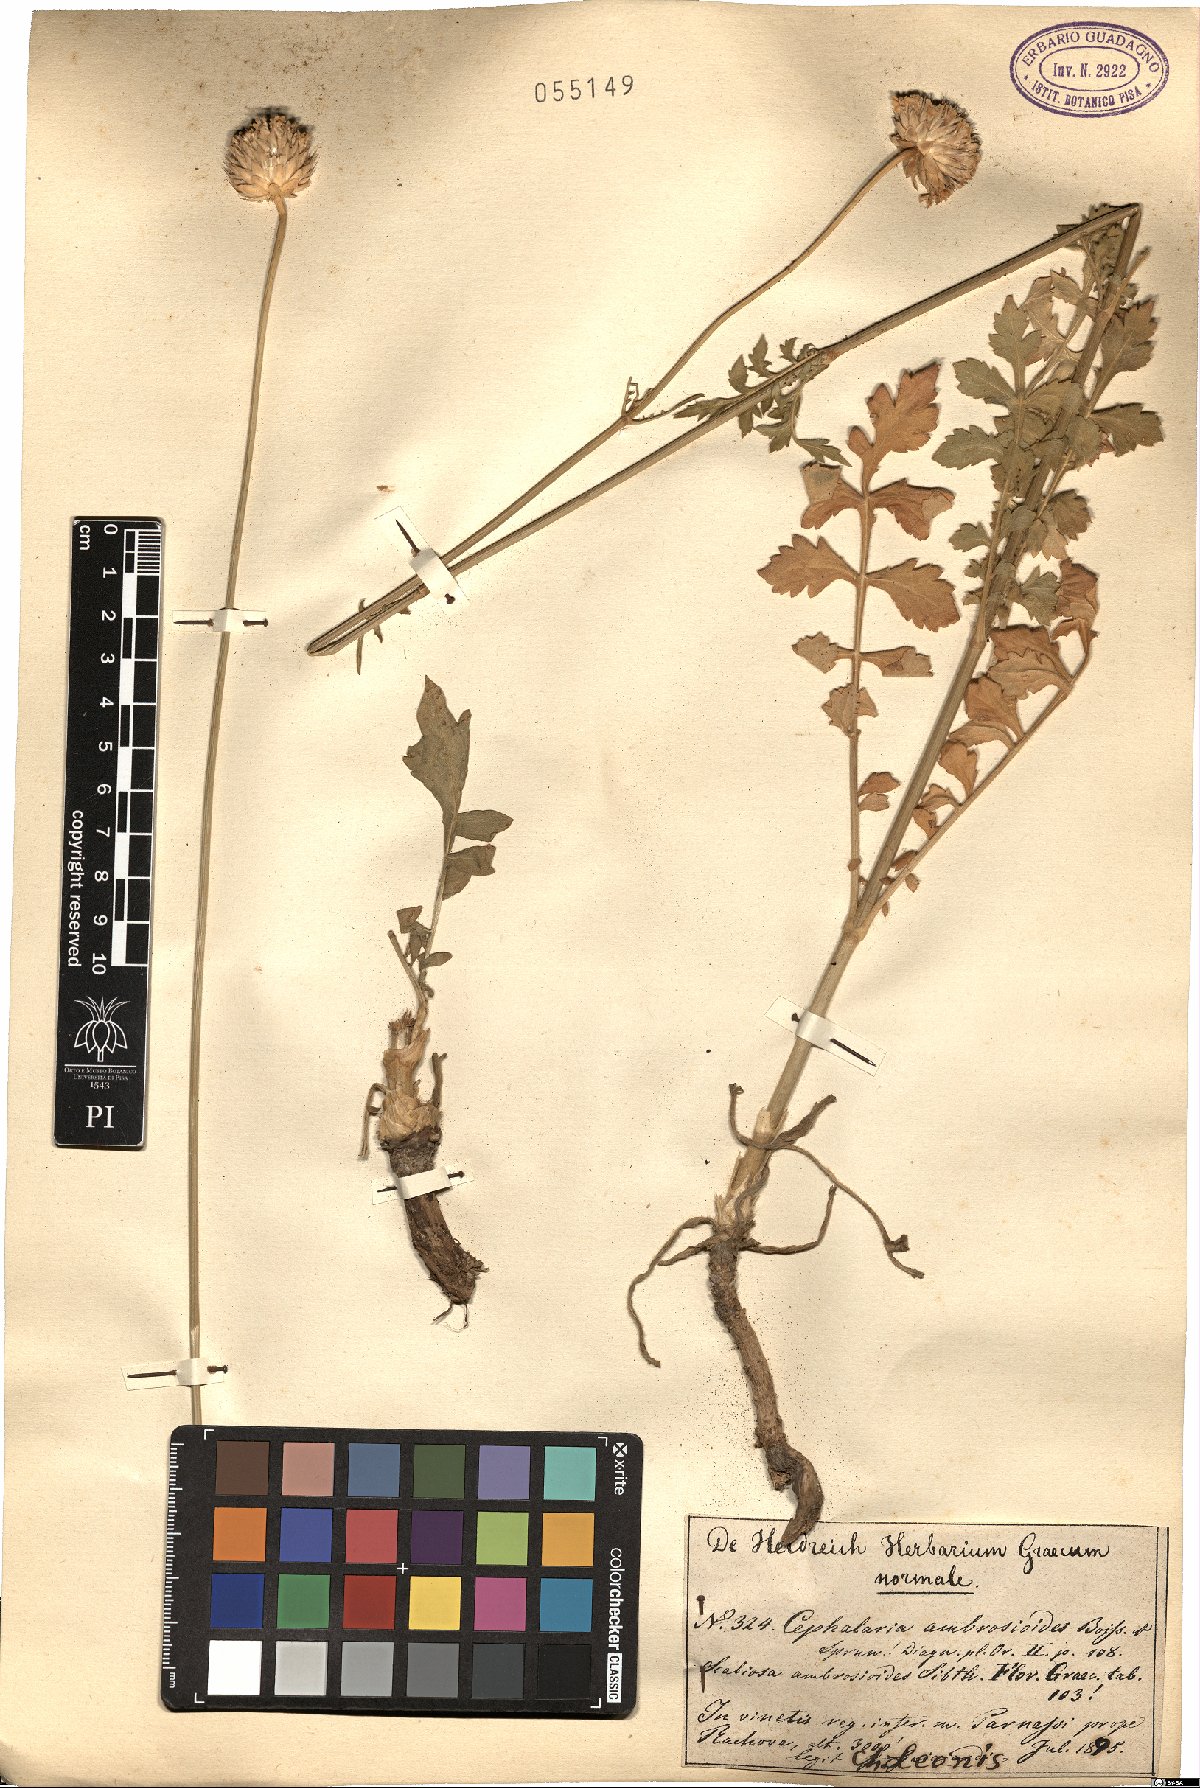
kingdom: Plantae
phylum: Tracheophyta
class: Magnoliopsida
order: Dipsacales
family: Caprifoliaceae
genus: Cephalaria
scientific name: Cephalaria ambrosioides
